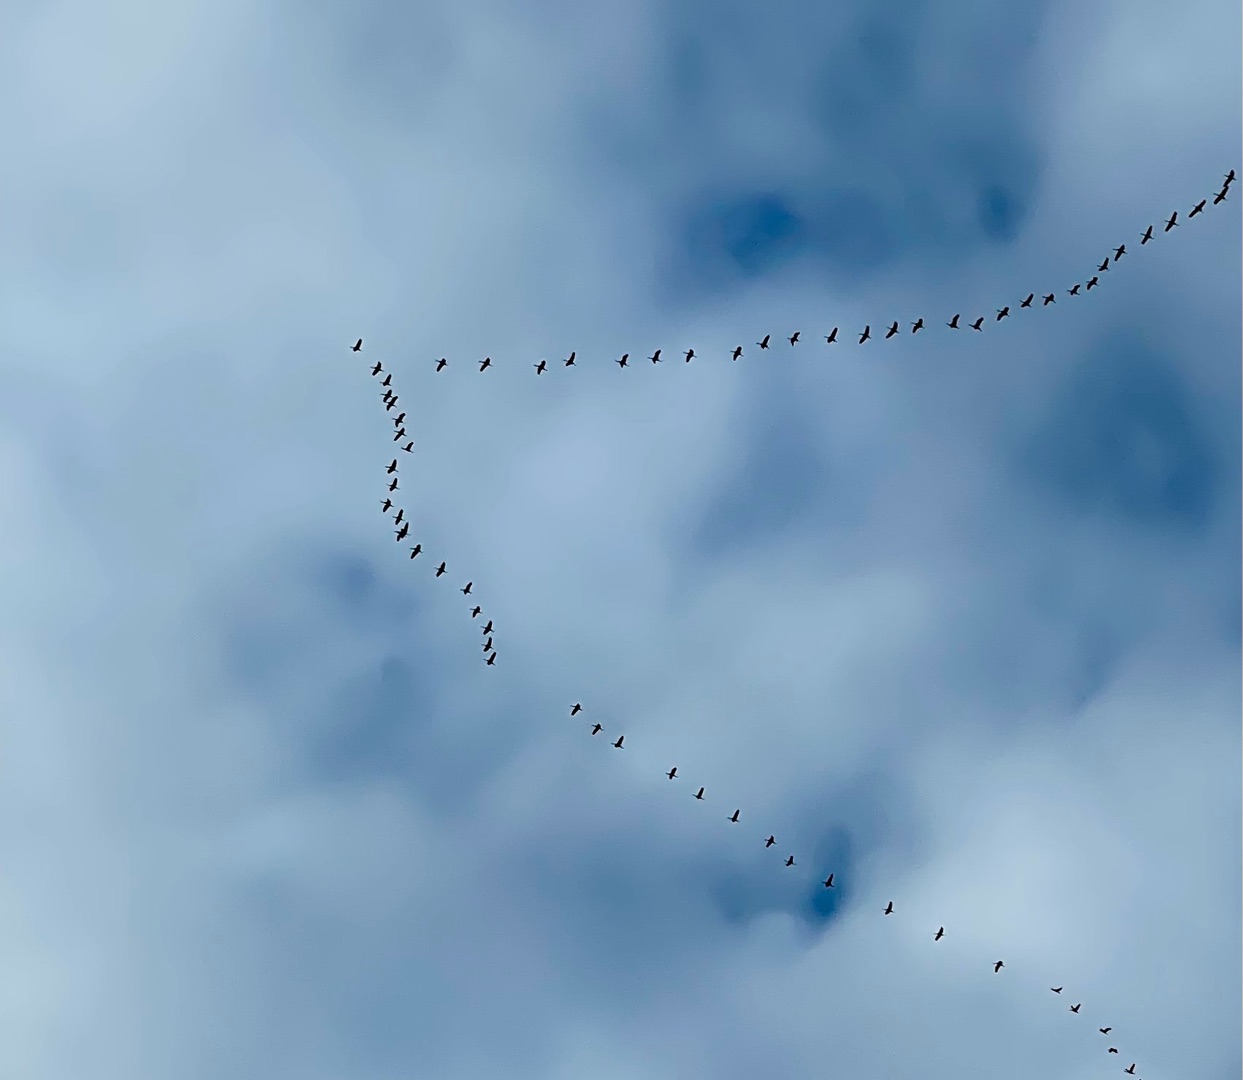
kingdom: Animalia
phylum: Chordata
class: Aves
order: Gruiformes
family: Gruidae
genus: Grus
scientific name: Grus grus
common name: Trane
